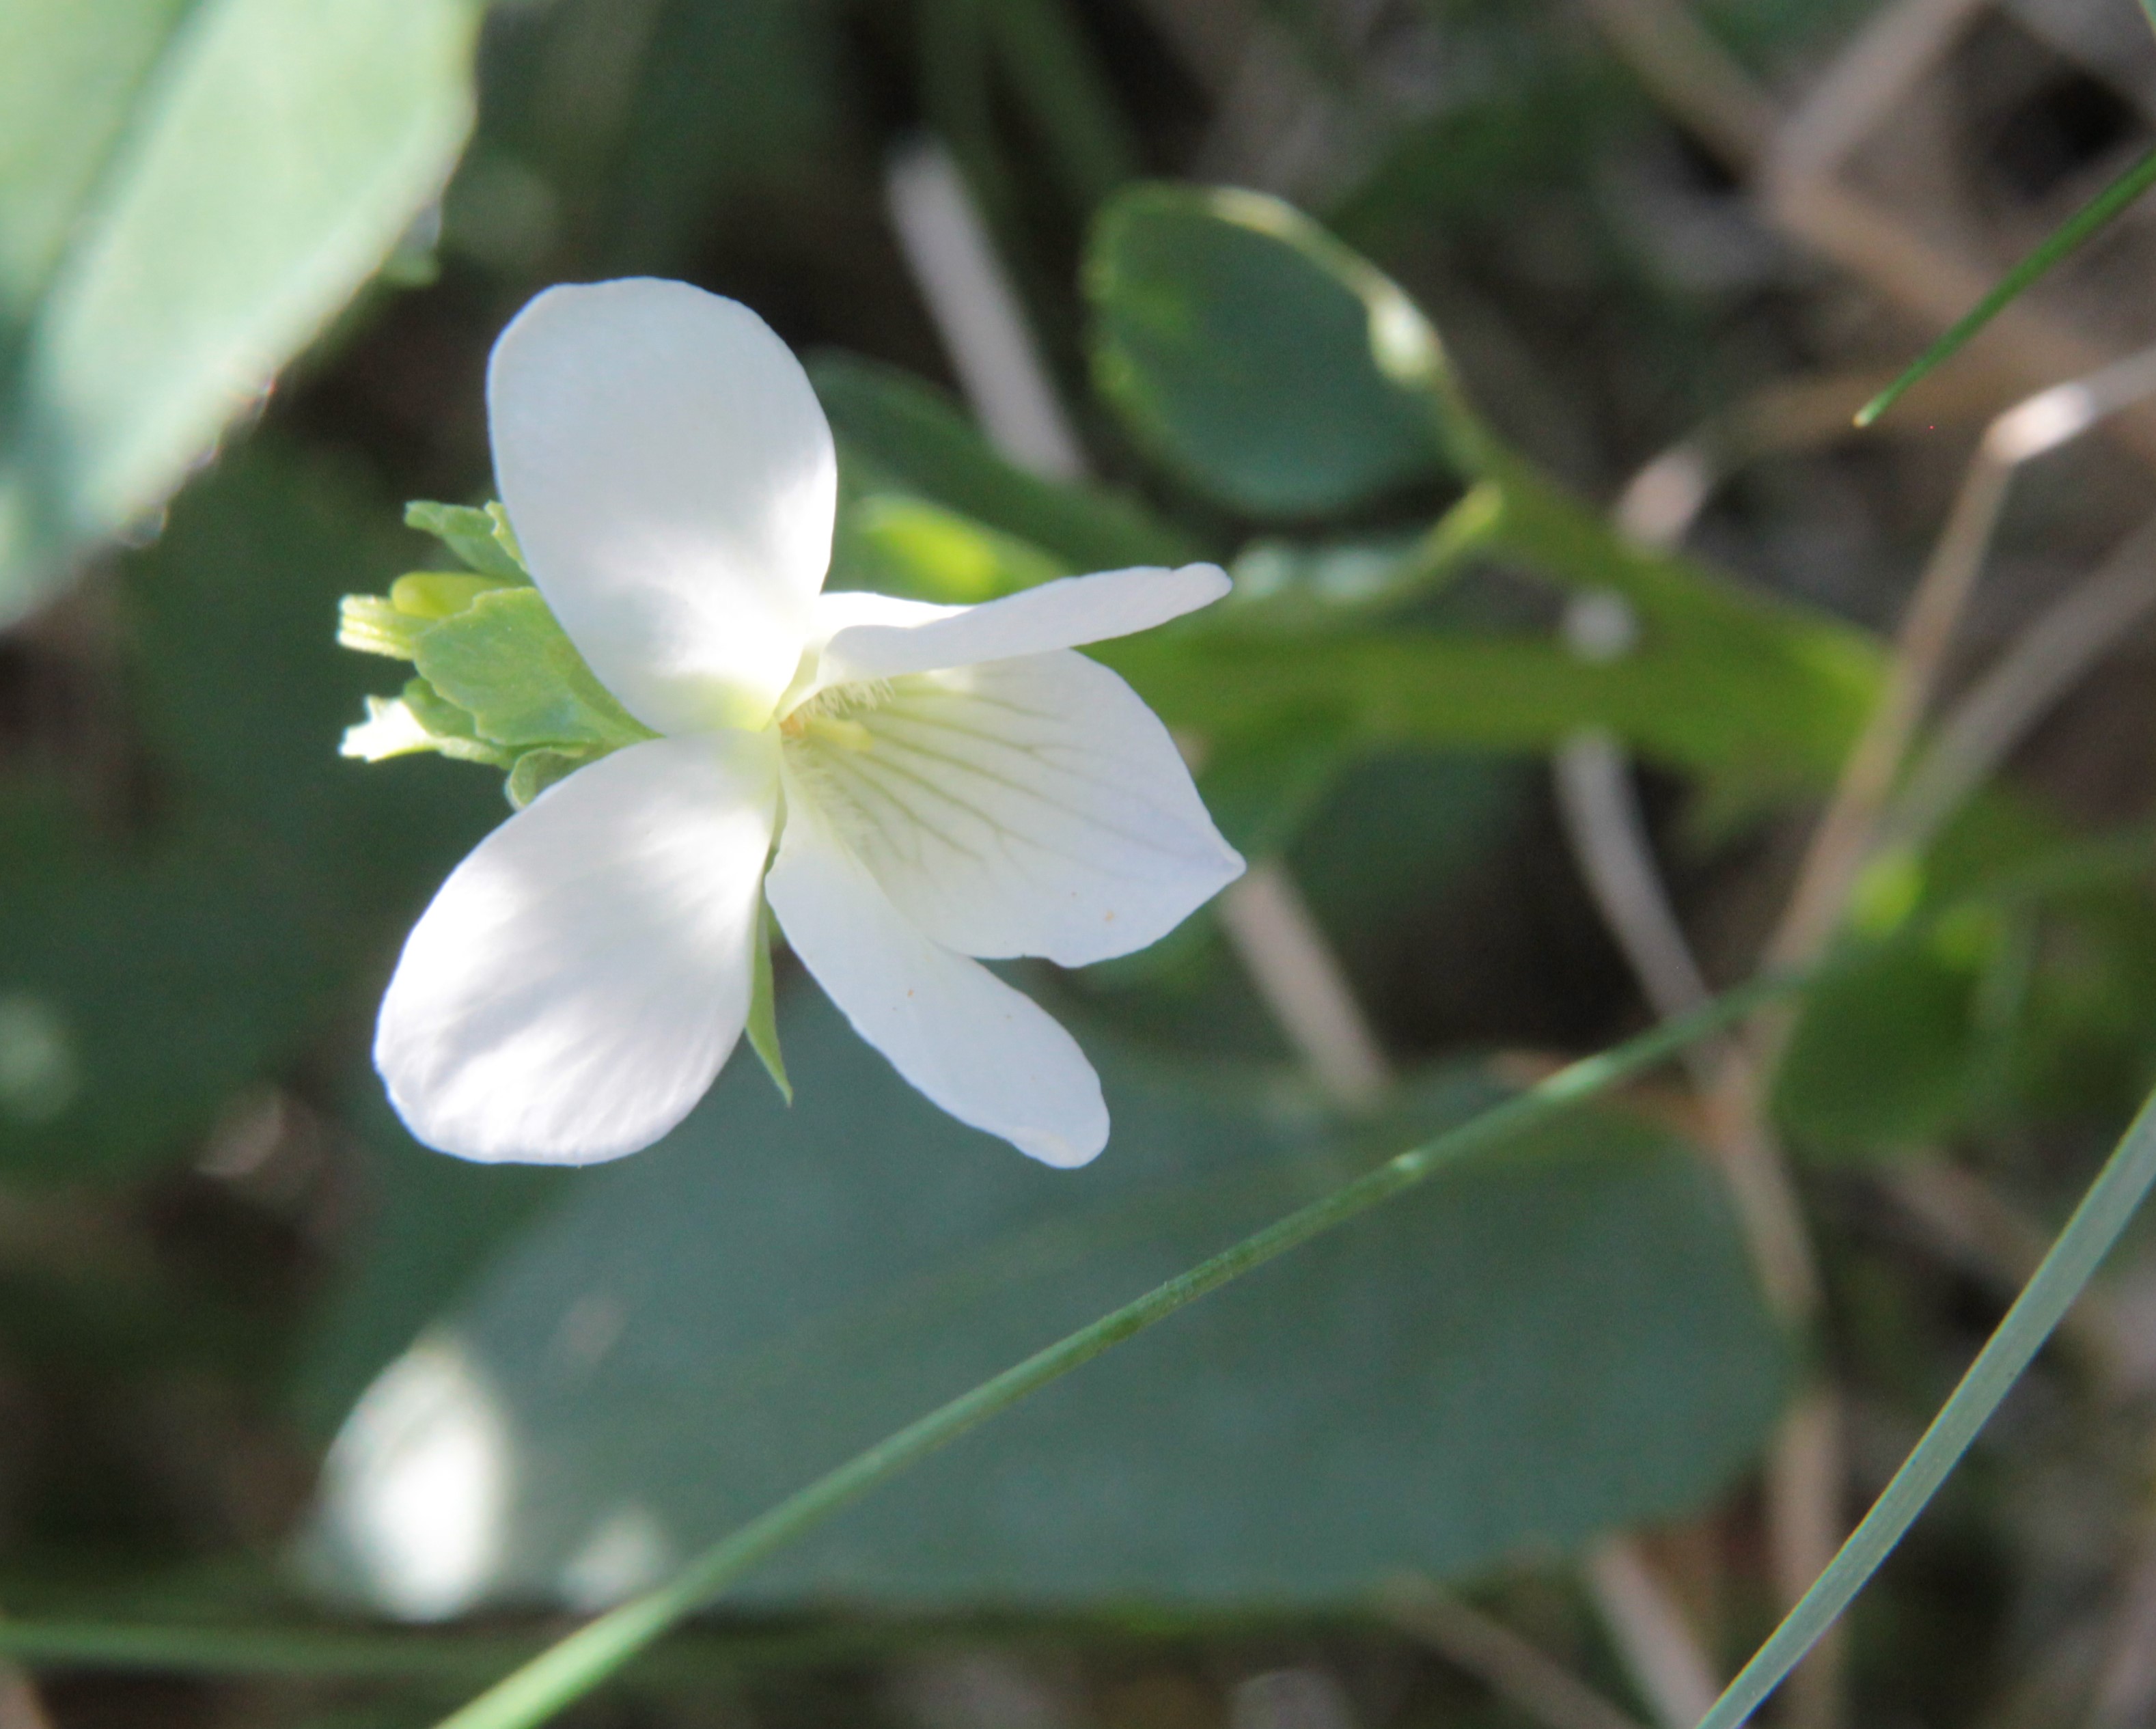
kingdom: Plantae
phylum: Tracheophyta
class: Magnoliopsida
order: Malpighiales
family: Violaceae
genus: Viola
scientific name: Viola
